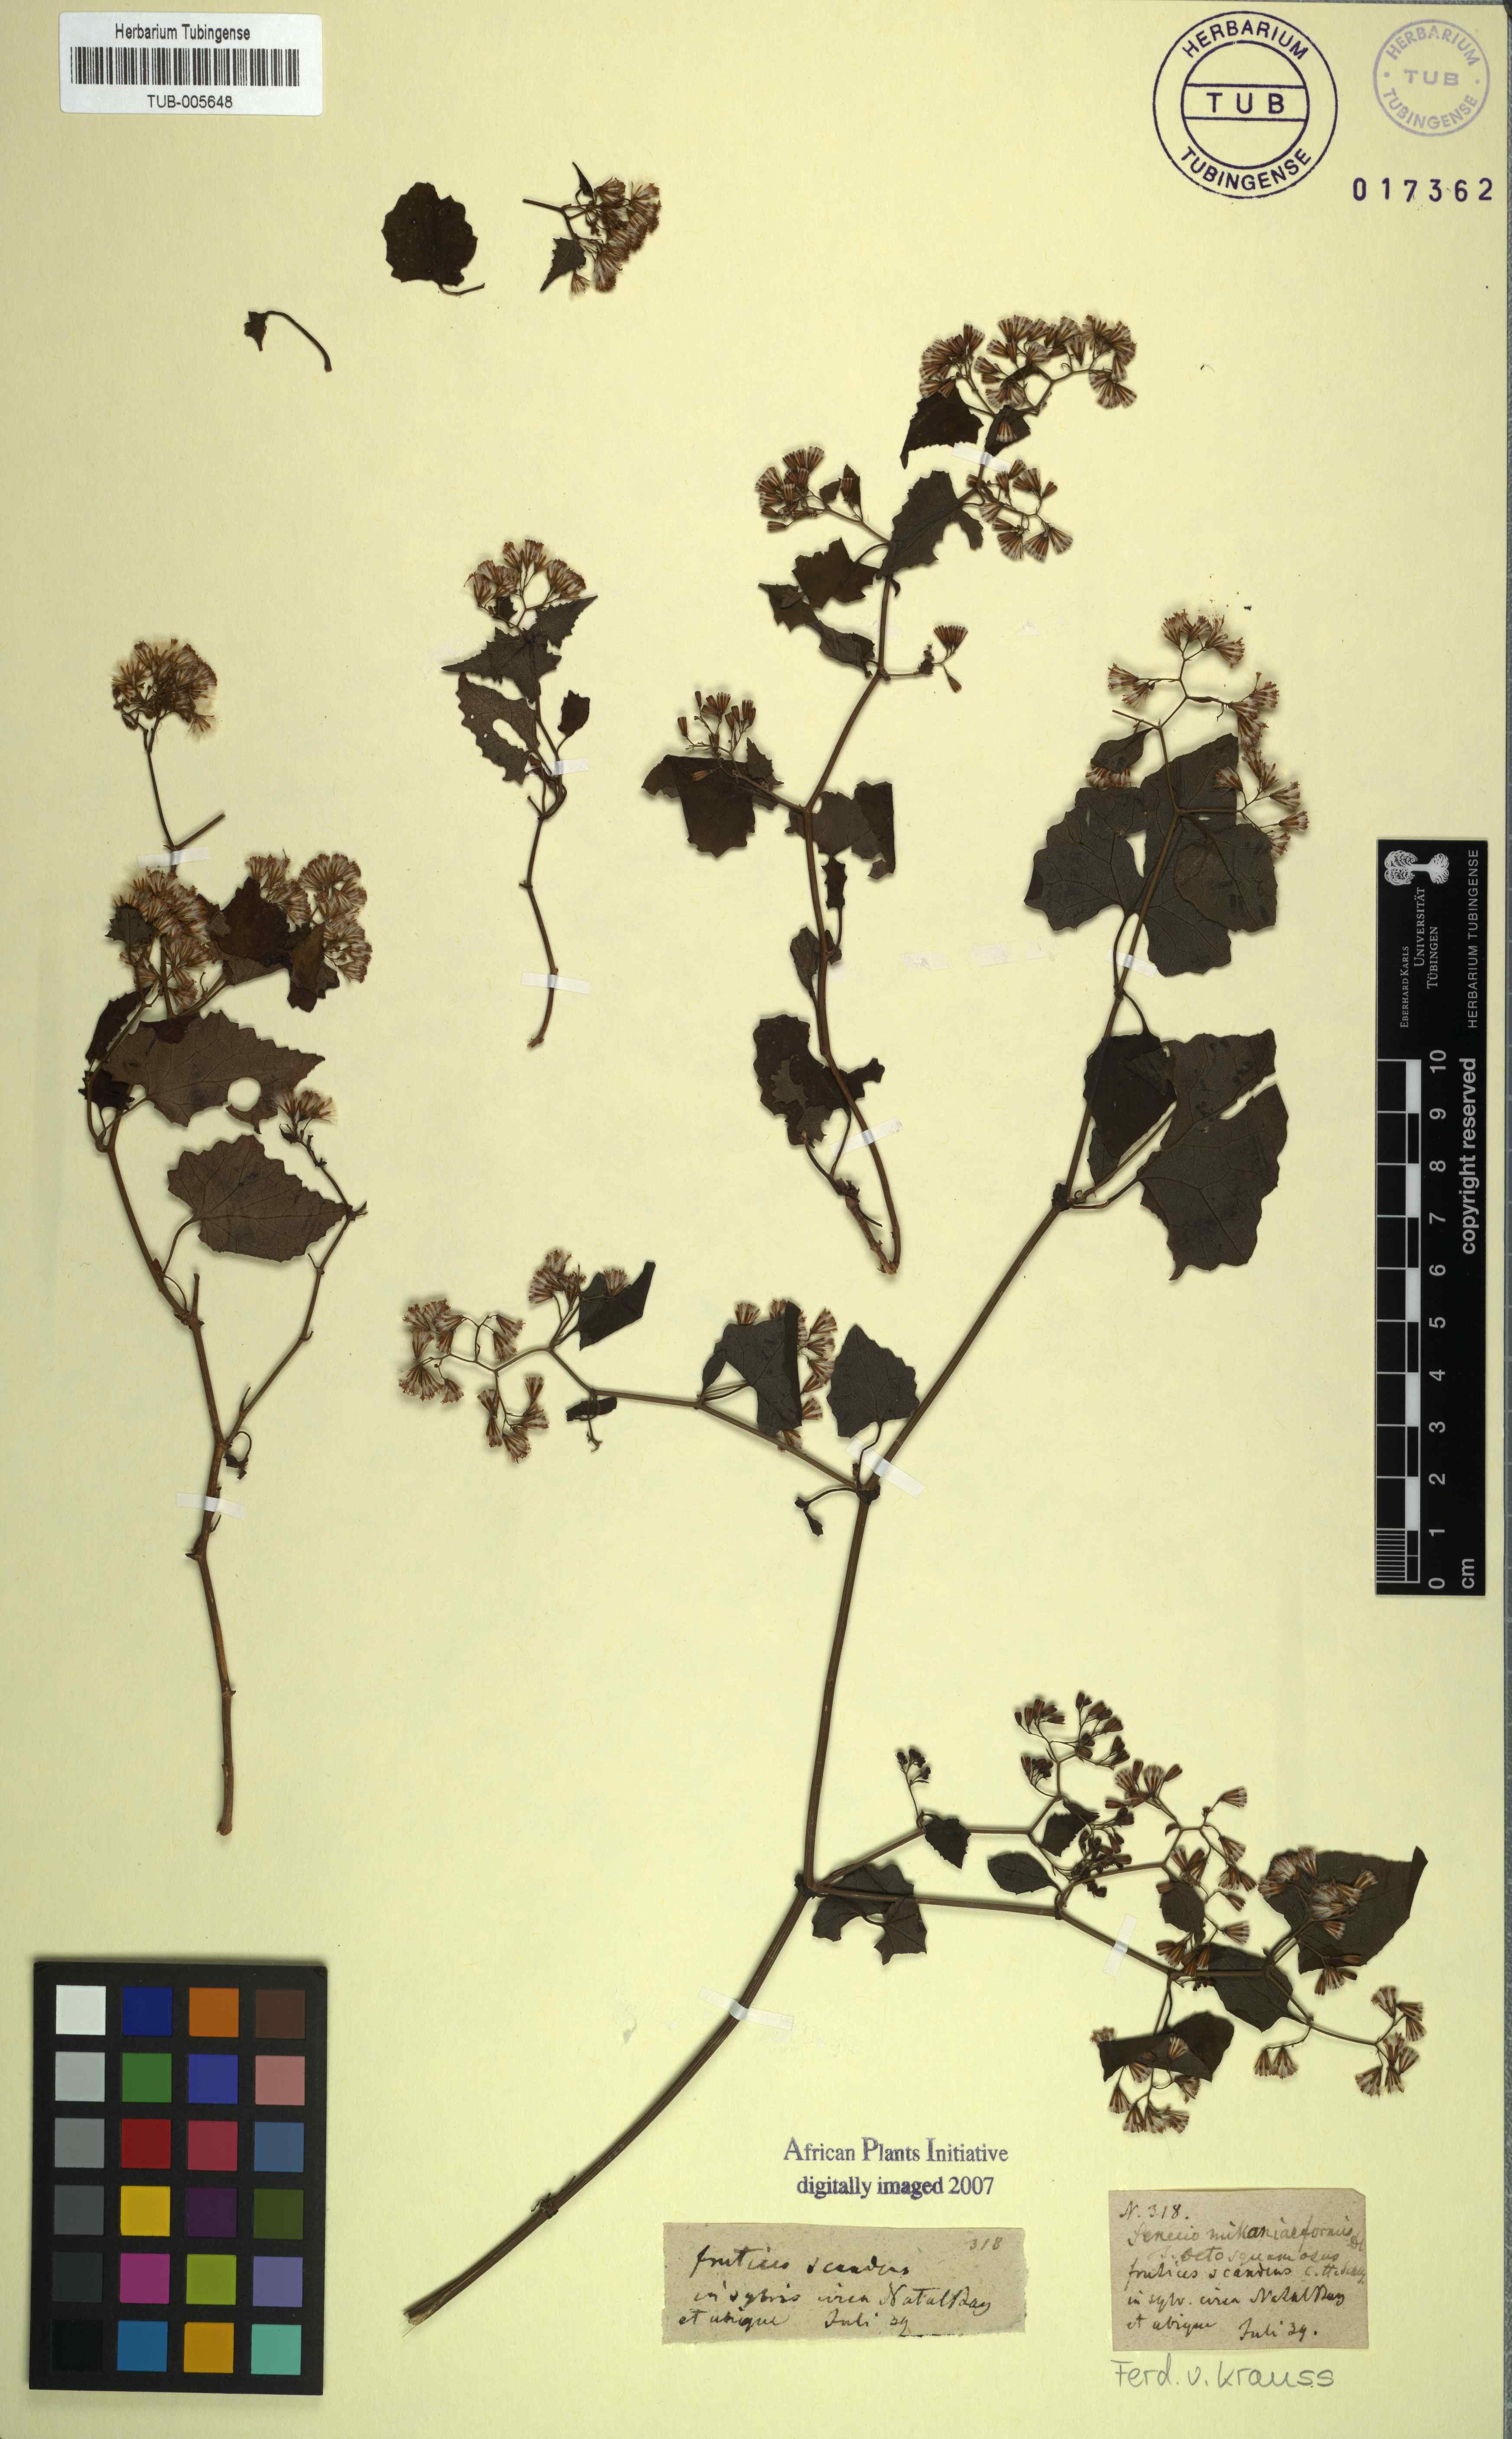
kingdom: Plantae
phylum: Tracheophyta
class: Magnoliopsida
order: Asterales
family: Asteraceae
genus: Senecio
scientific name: Senecio deltoideus
